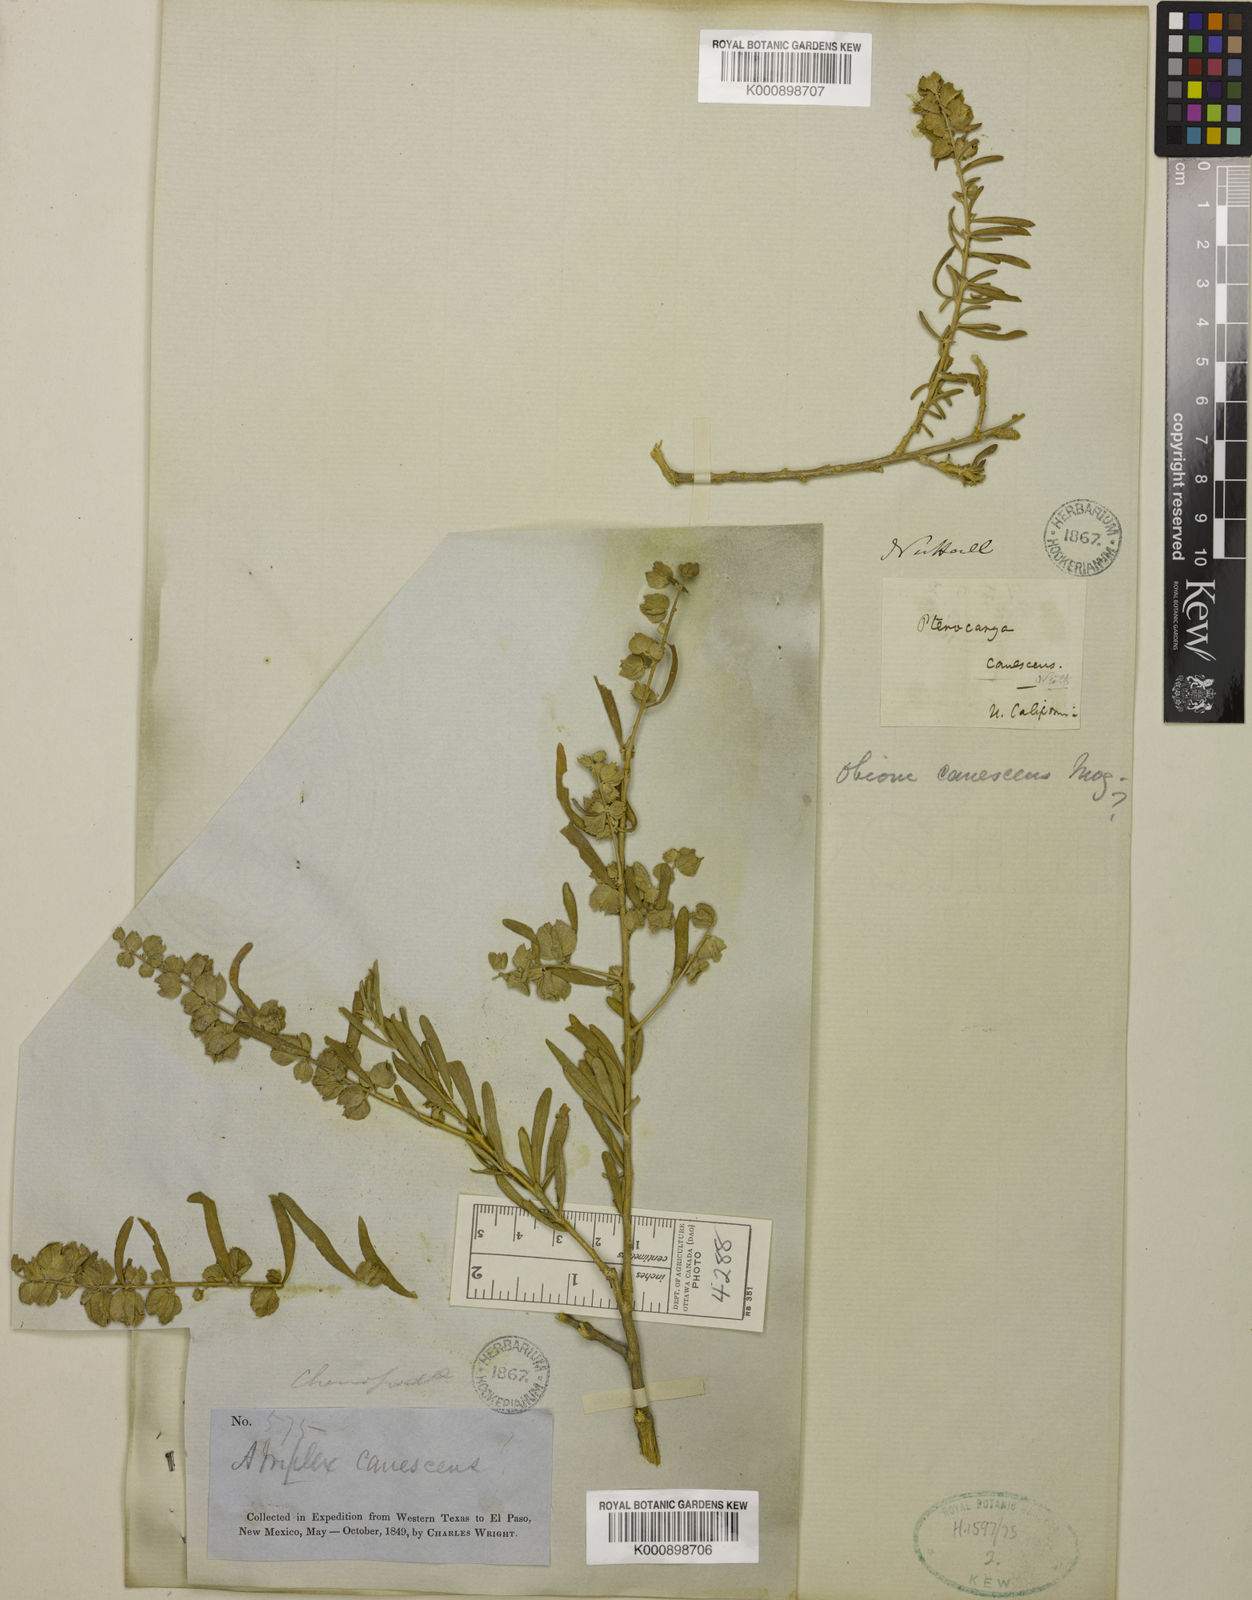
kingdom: Plantae
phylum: Tracheophyta
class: Magnoliopsida
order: Caryophyllales
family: Amaranthaceae
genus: Atriplex
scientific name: Atriplex canescens
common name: Four-wing saltbush
